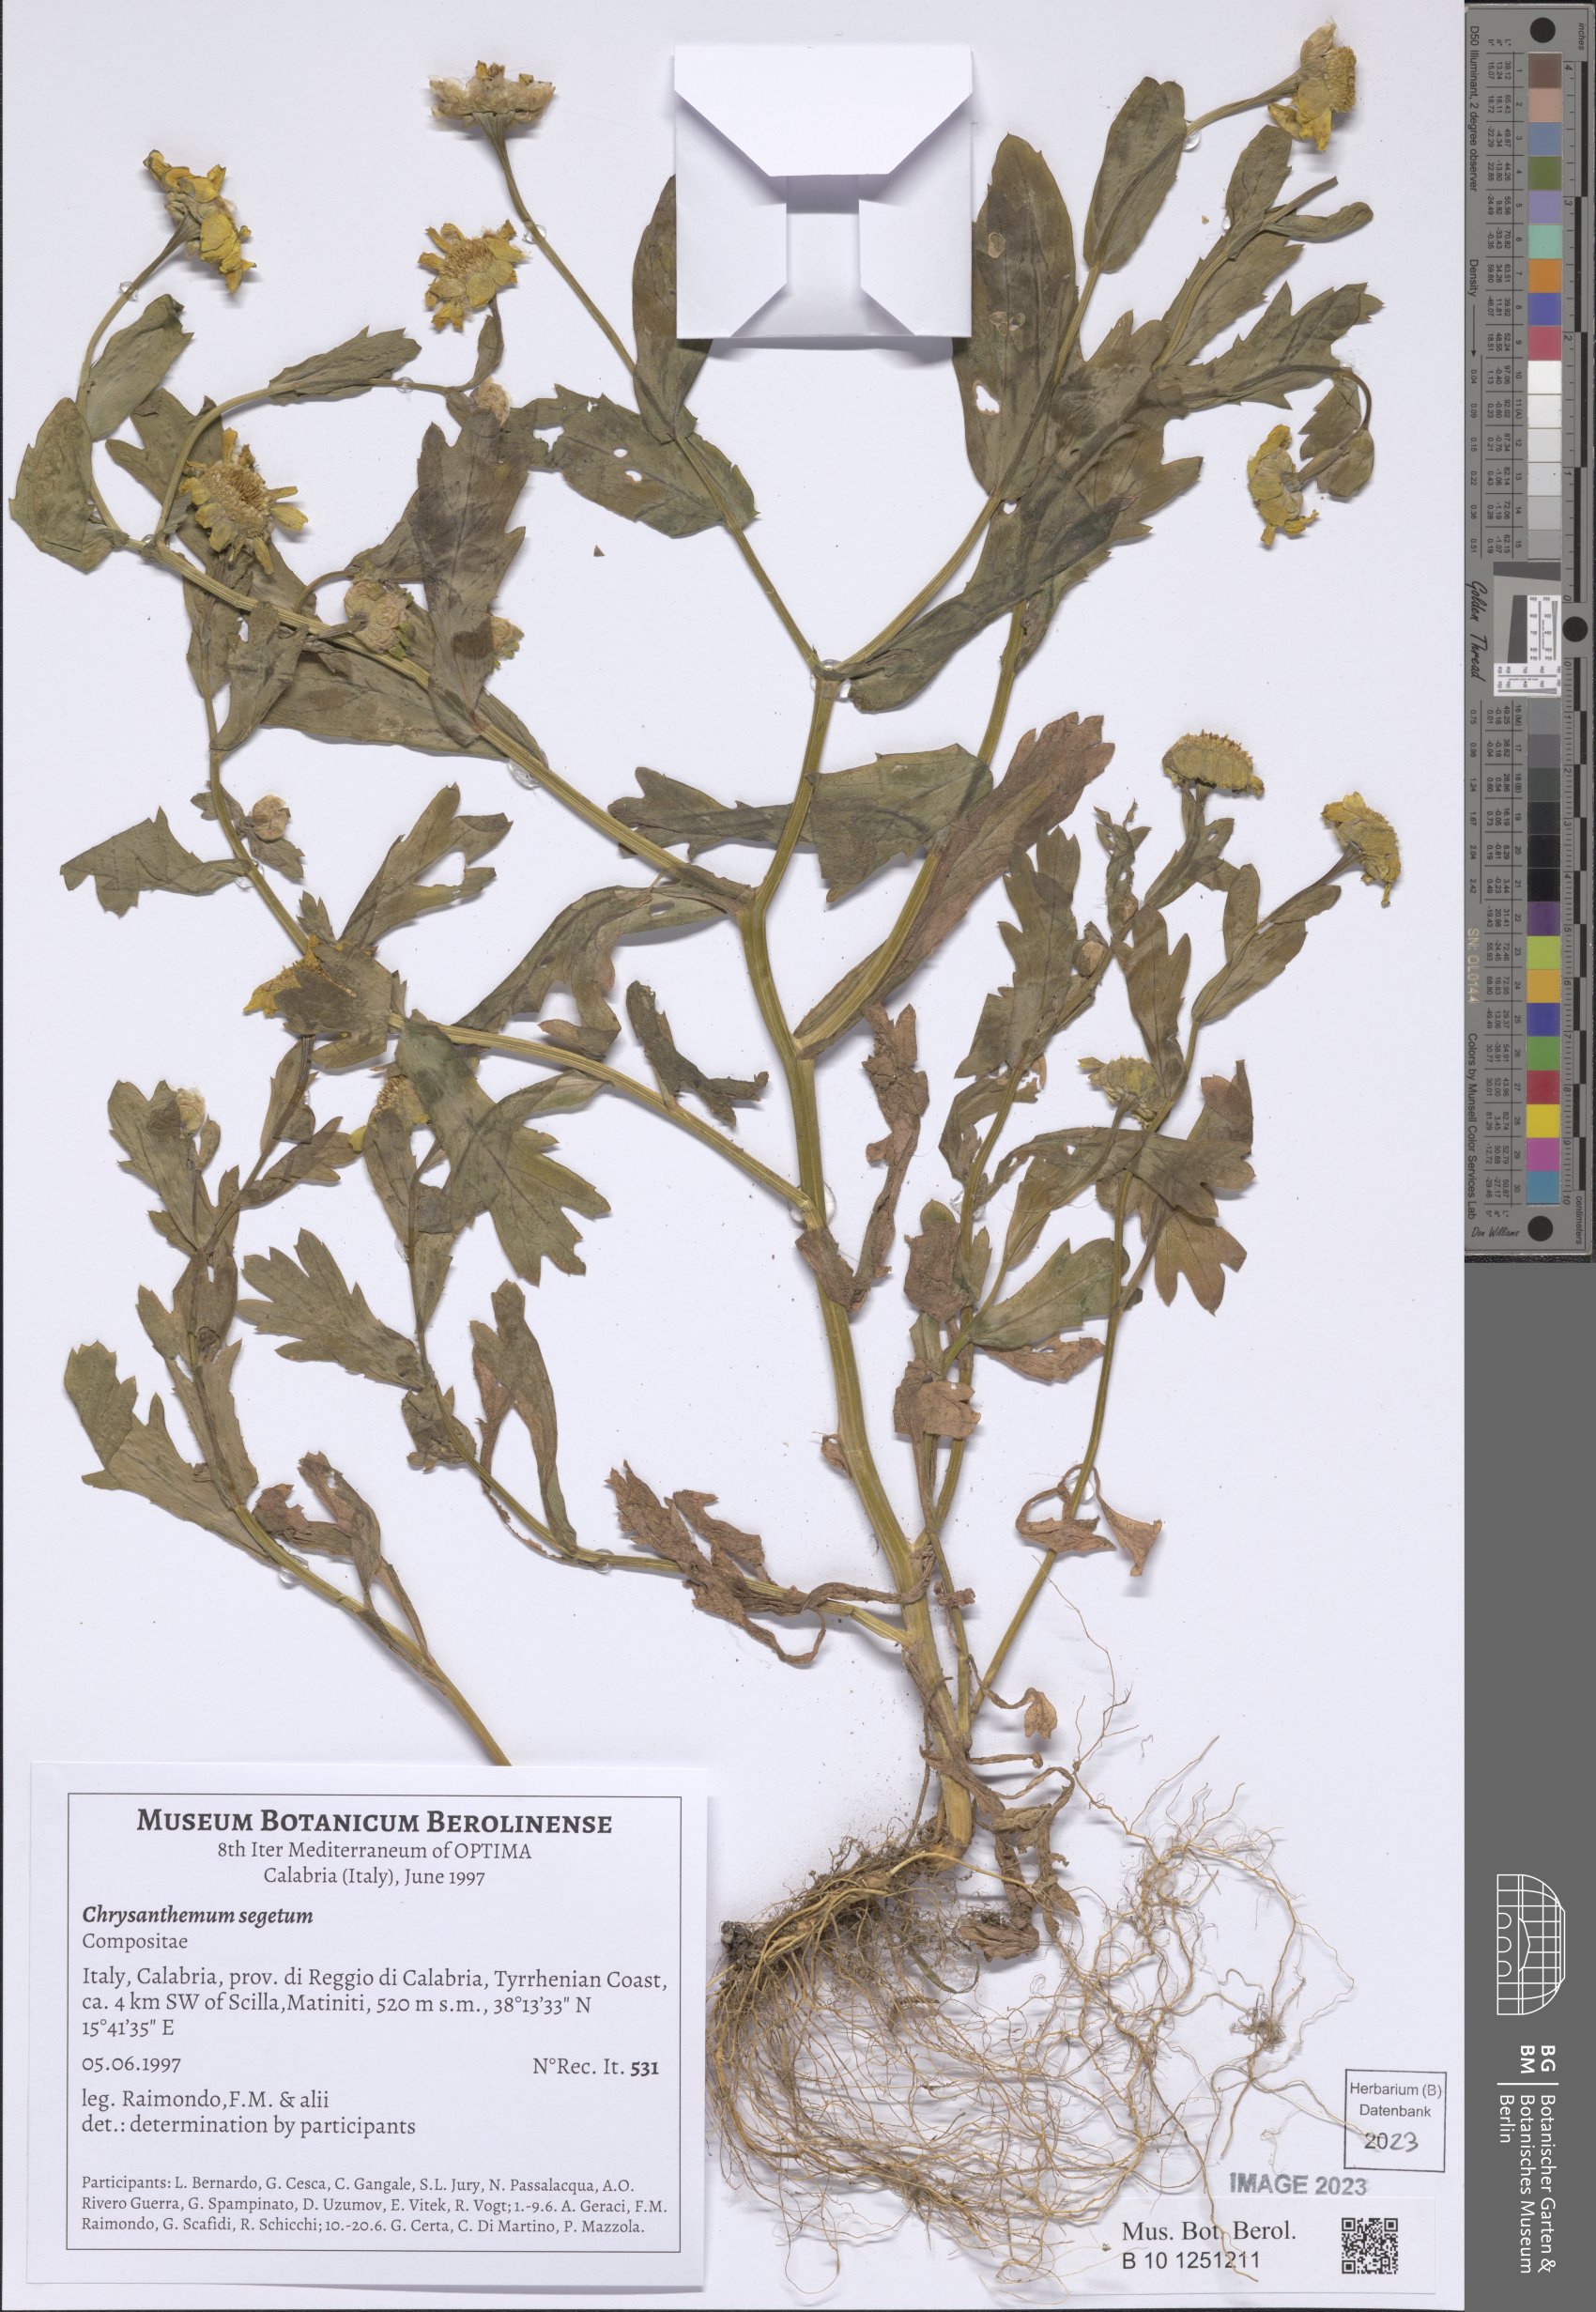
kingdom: Plantae
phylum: Tracheophyta
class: Magnoliopsida
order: Asterales
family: Asteraceae
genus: Glebionis
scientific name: Glebionis segetum
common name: Corndaisy
